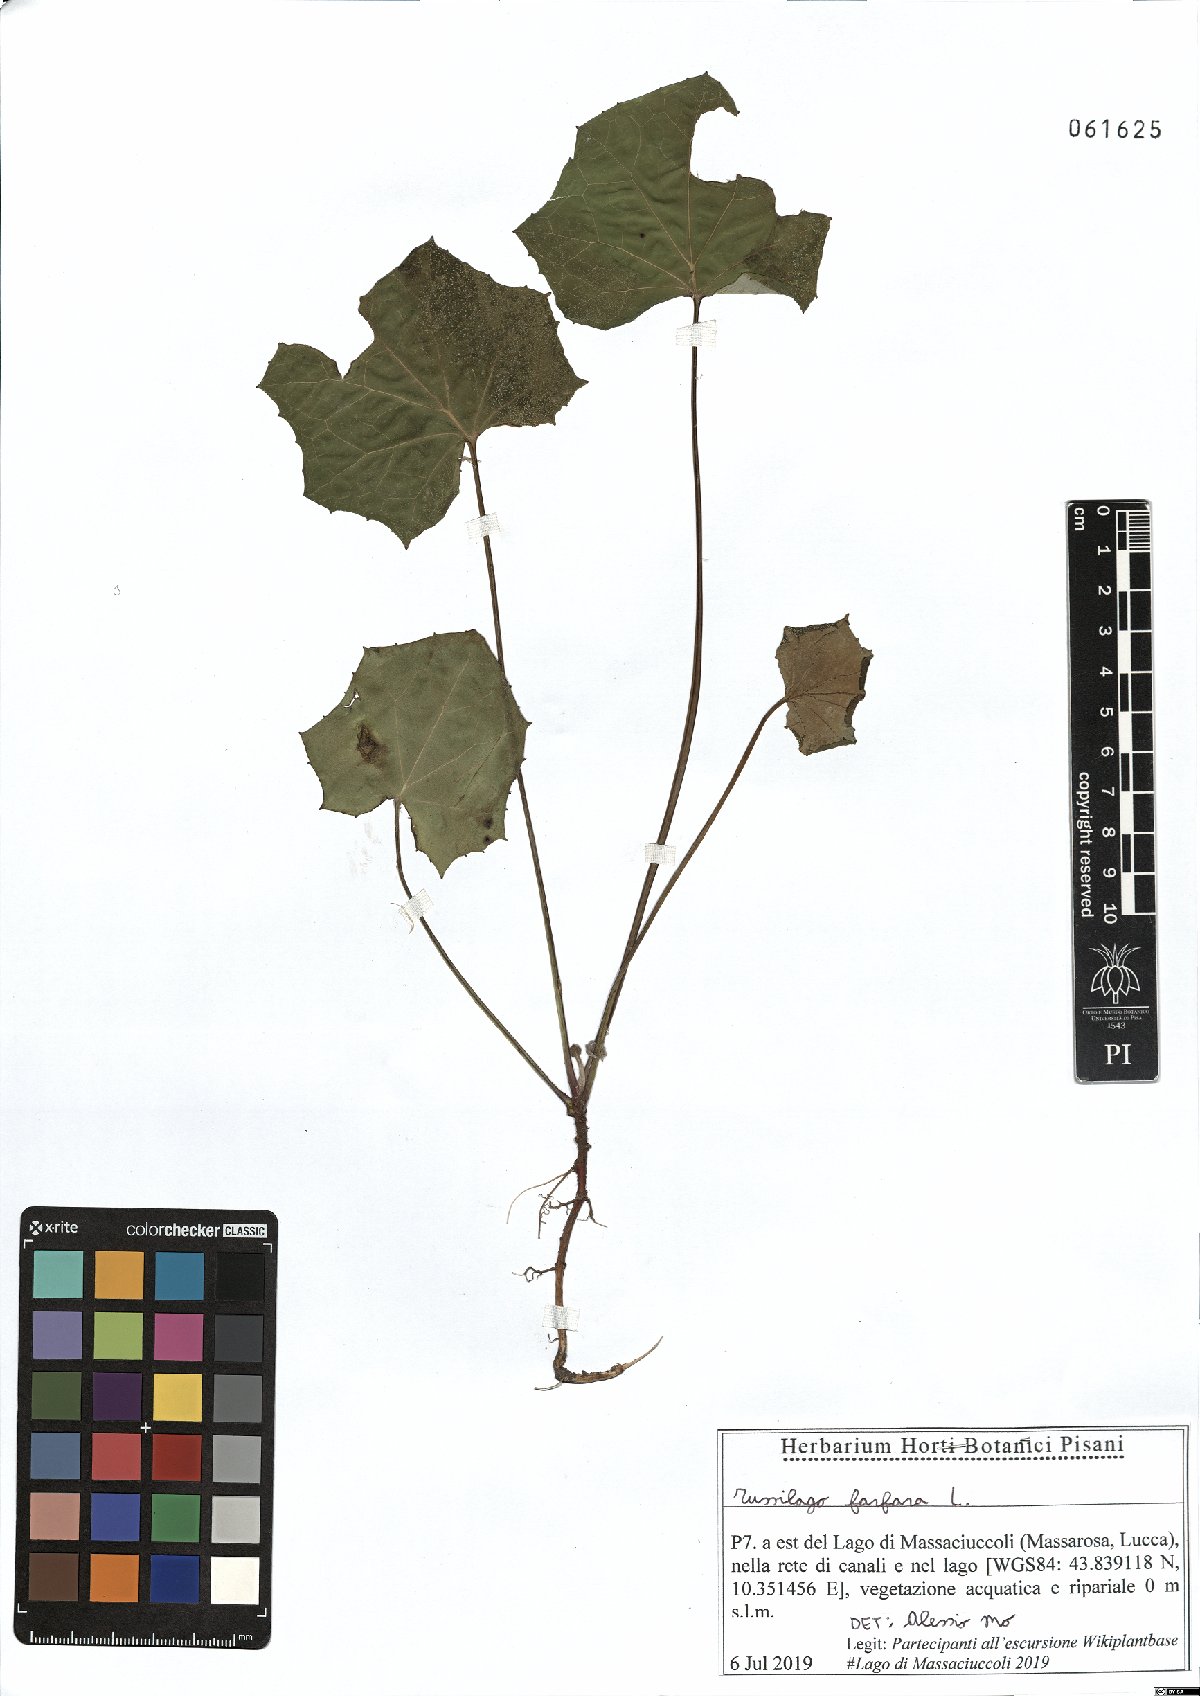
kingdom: Plantae
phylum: Tracheophyta
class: Magnoliopsida
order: Asterales
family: Asteraceae
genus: Tussilago
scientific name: Tussilago farfara
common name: Coltsfoot
